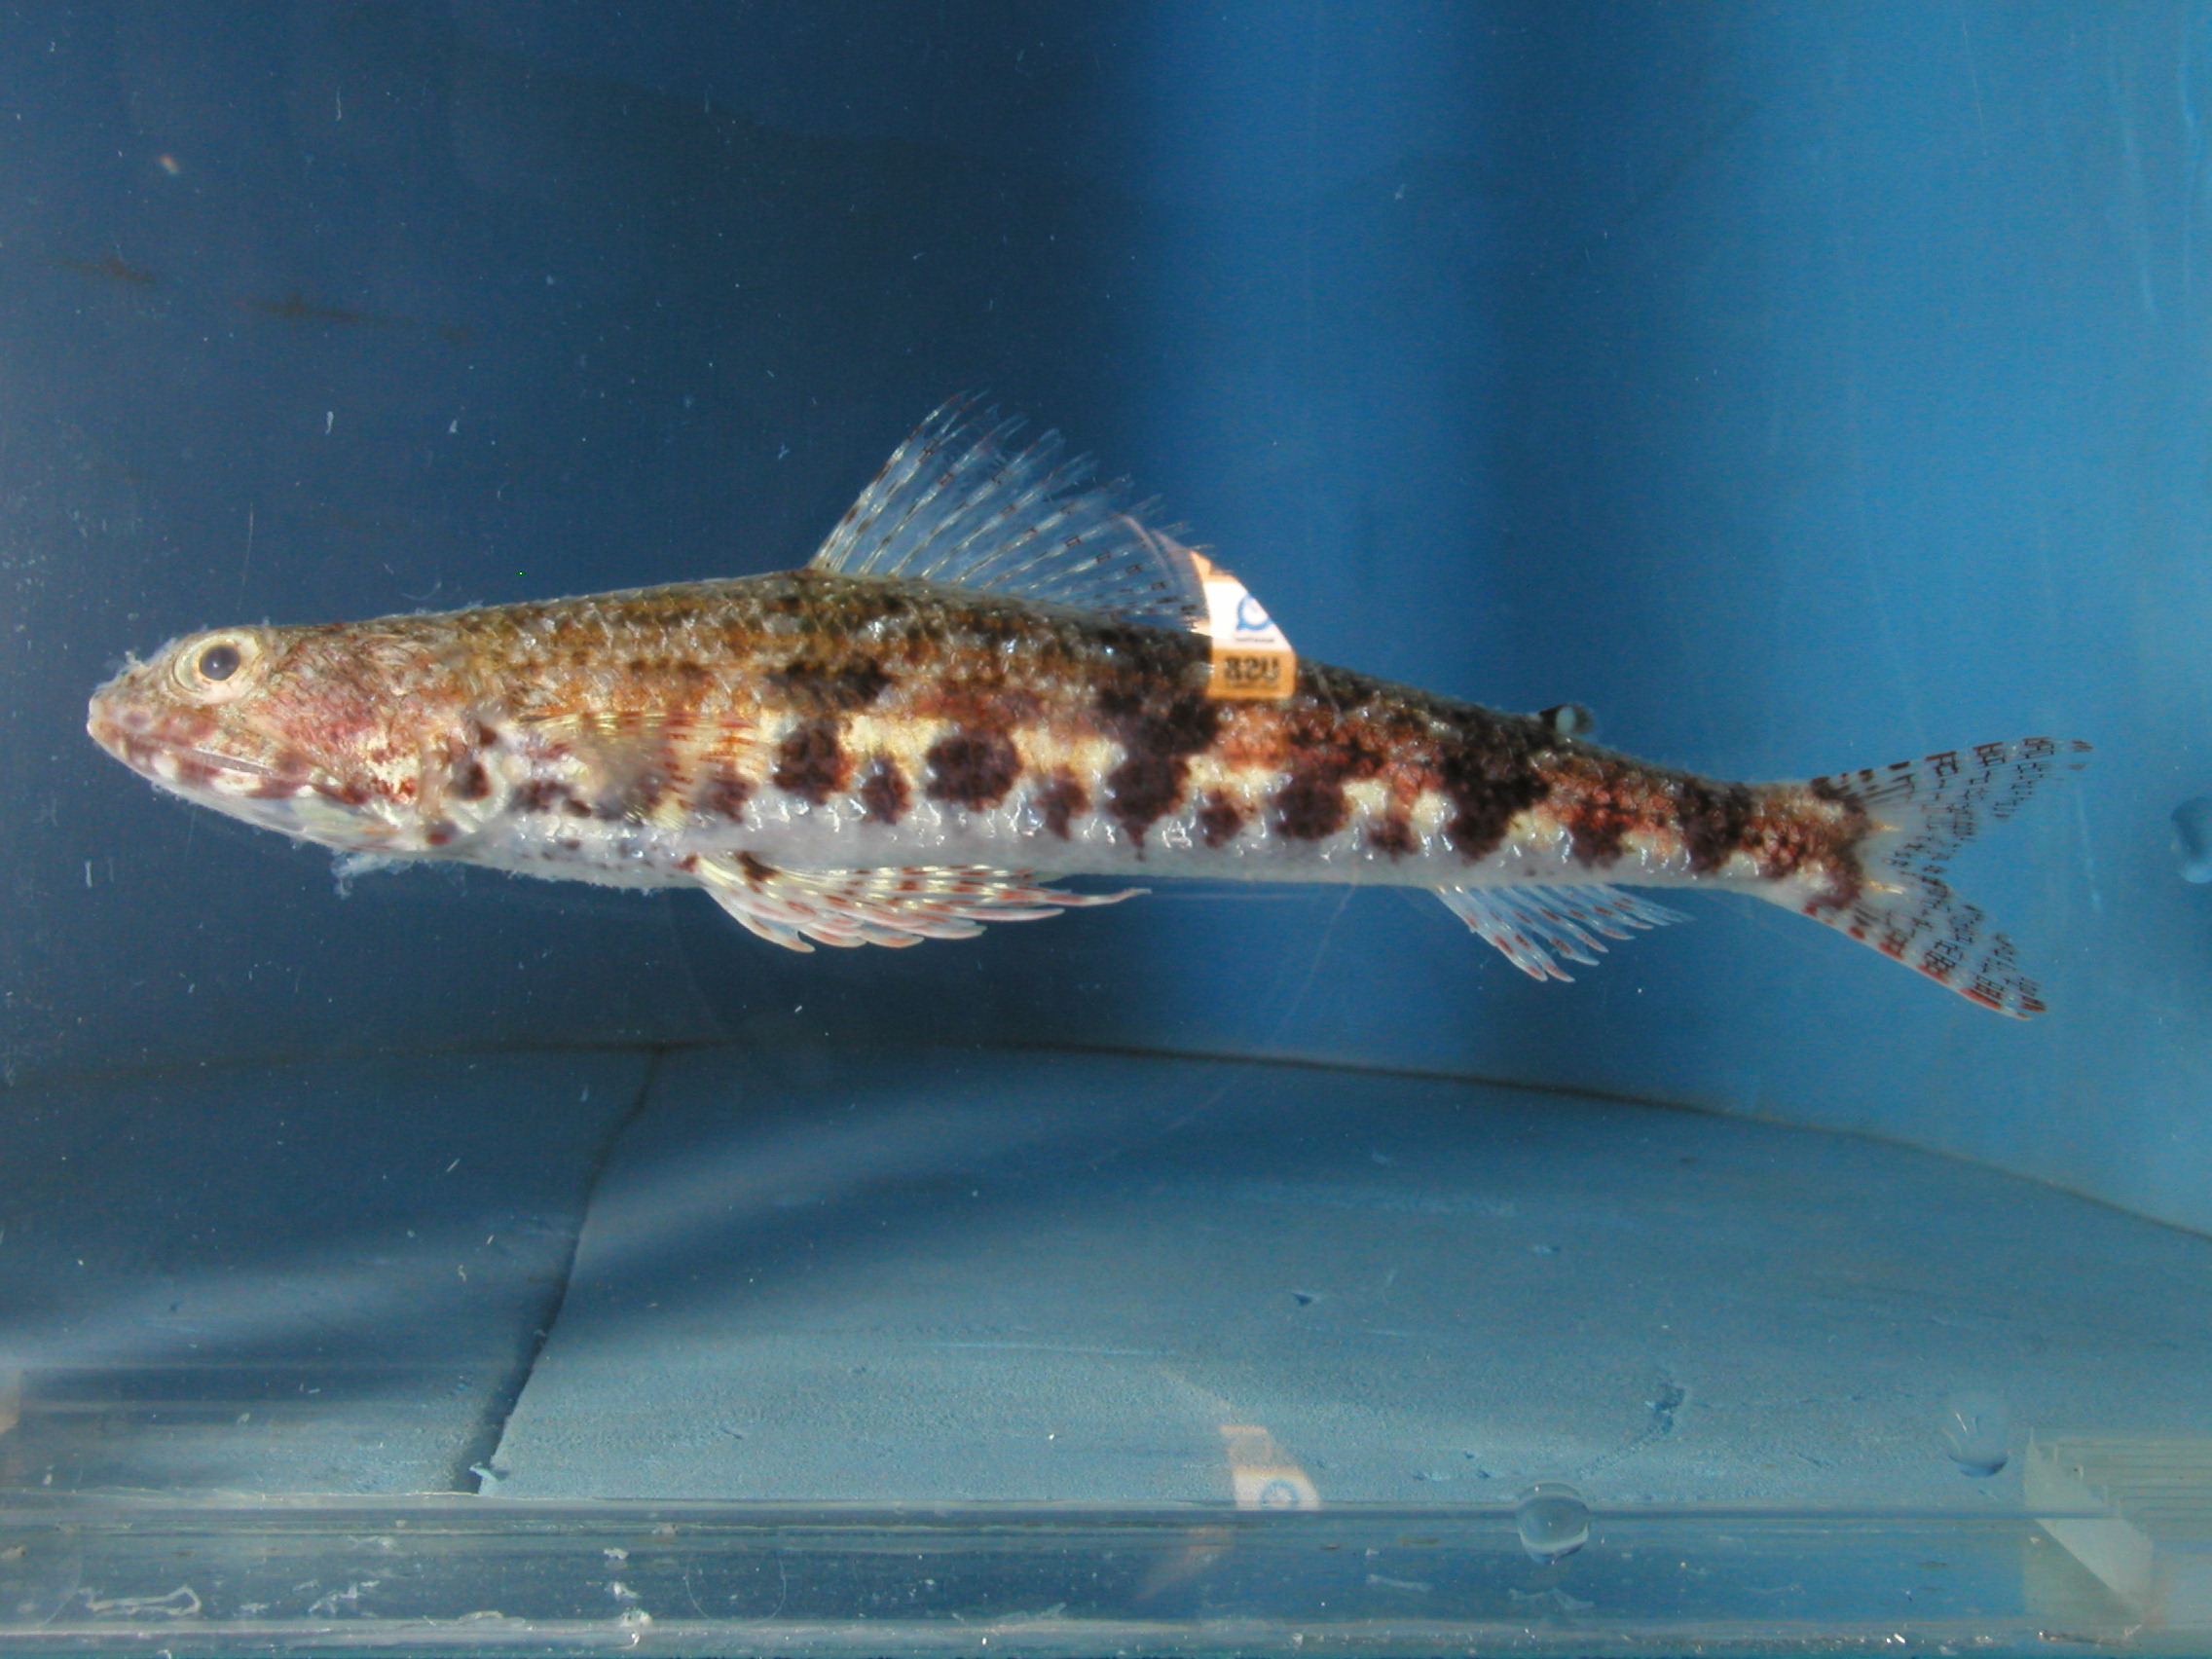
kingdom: Animalia
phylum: Chordata
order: Aulopiformes
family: Synodontidae
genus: Synodus
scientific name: Synodus doaki
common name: Arrowtooth lizardfish
